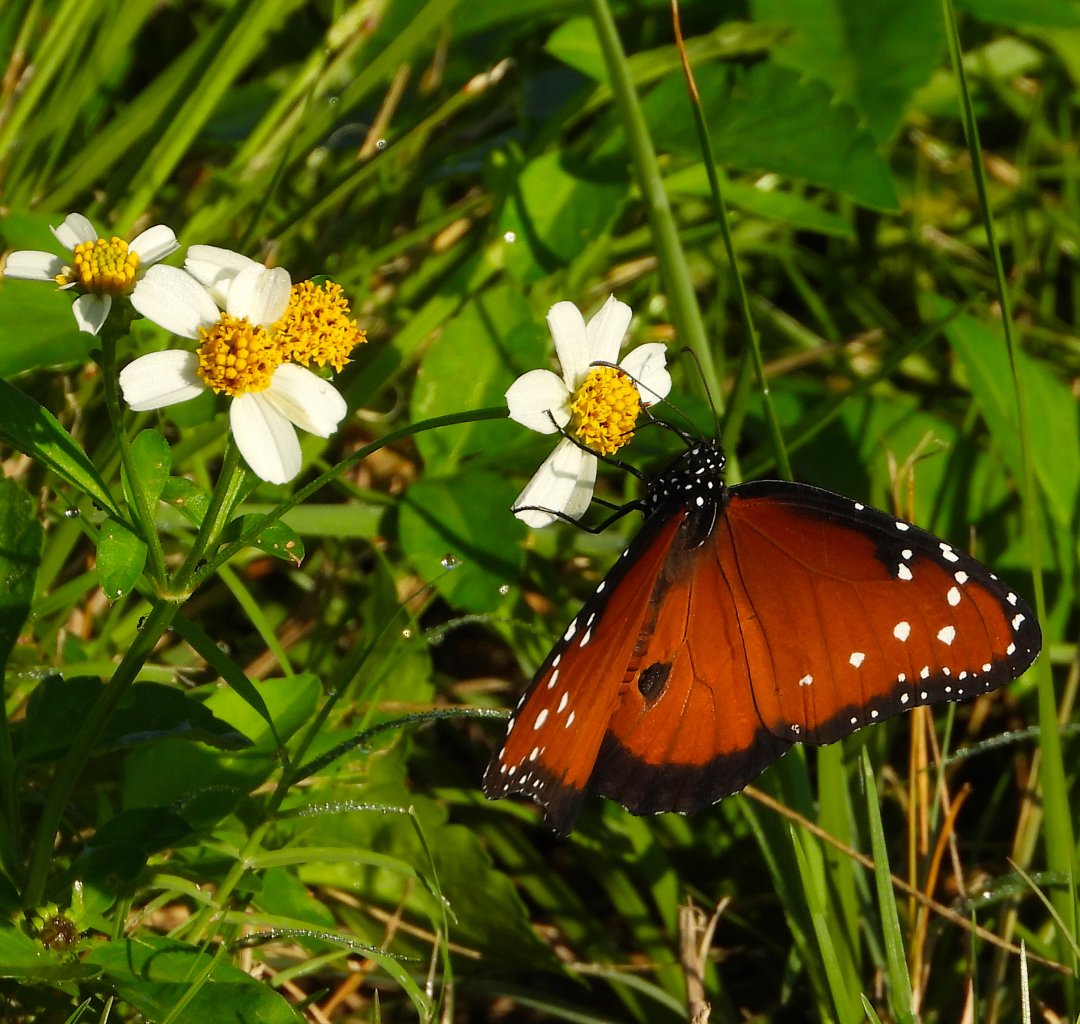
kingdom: Animalia
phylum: Arthropoda
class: Insecta
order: Lepidoptera
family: Nymphalidae
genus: Danaus
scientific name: Danaus gilippus
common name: Queen
